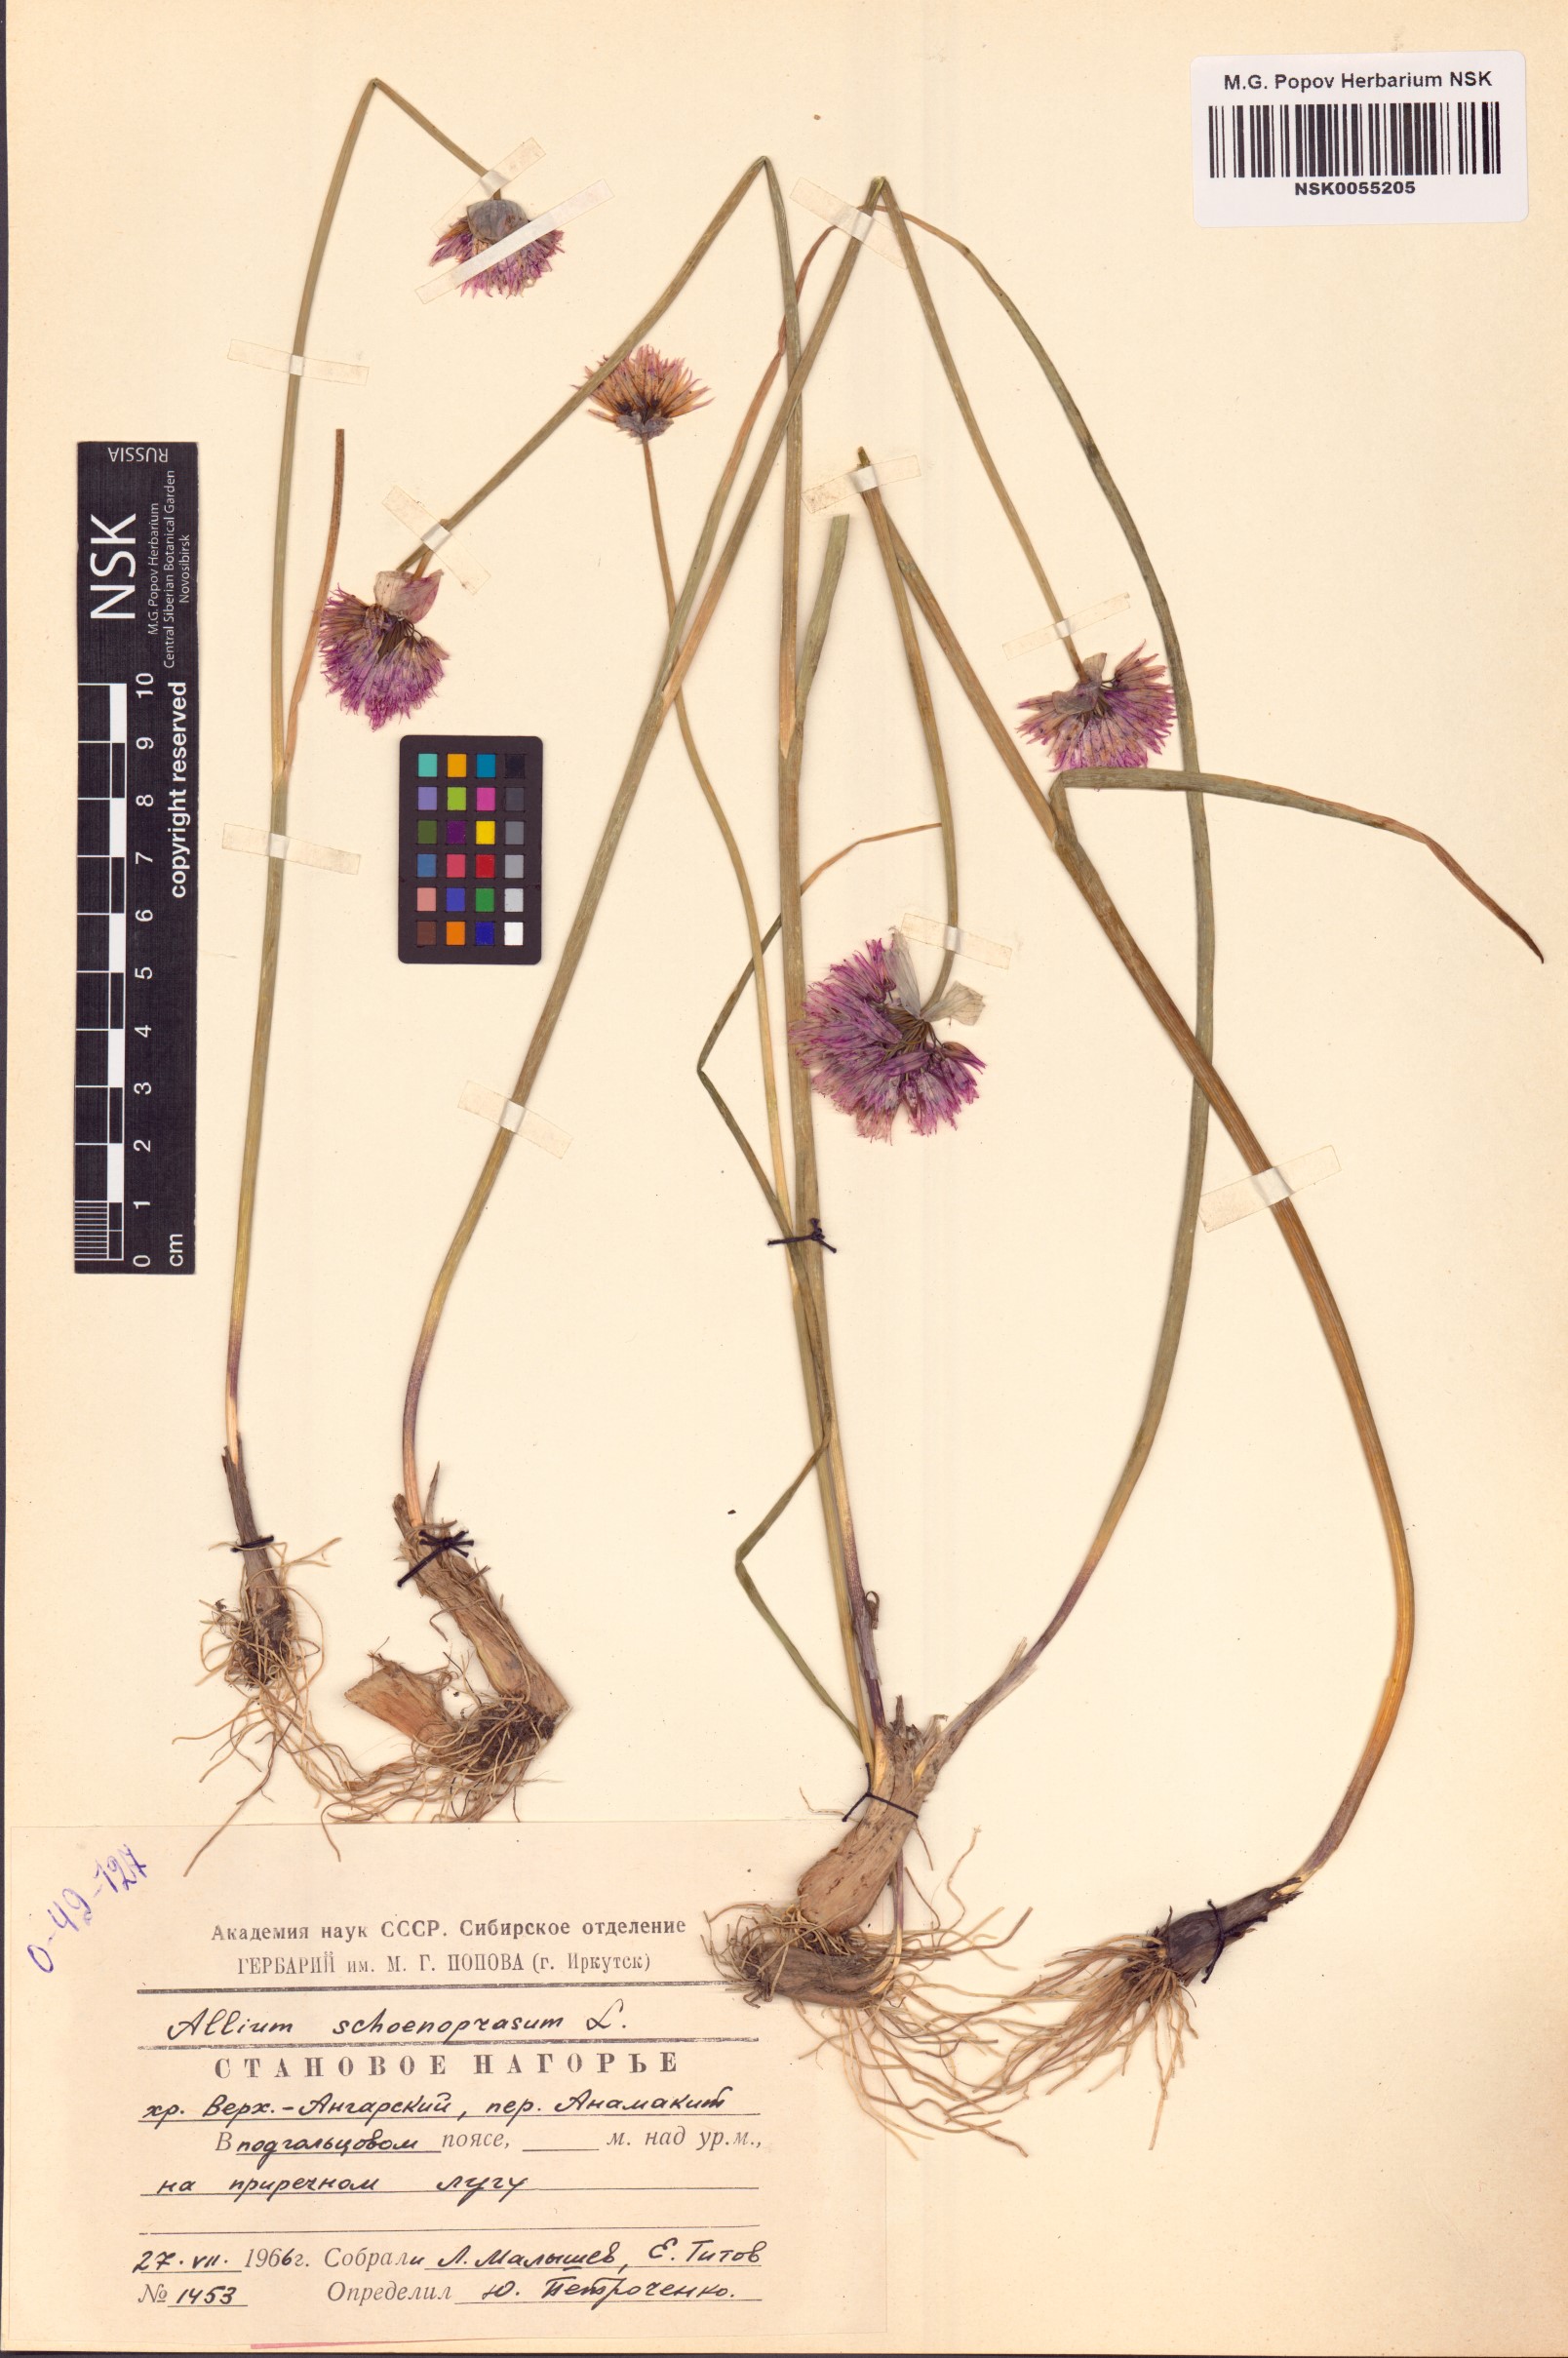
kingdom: Plantae
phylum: Tracheophyta
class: Liliopsida
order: Asparagales
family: Amaryllidaceae
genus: Allium
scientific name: Allium schoenoprasum
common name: Chives
